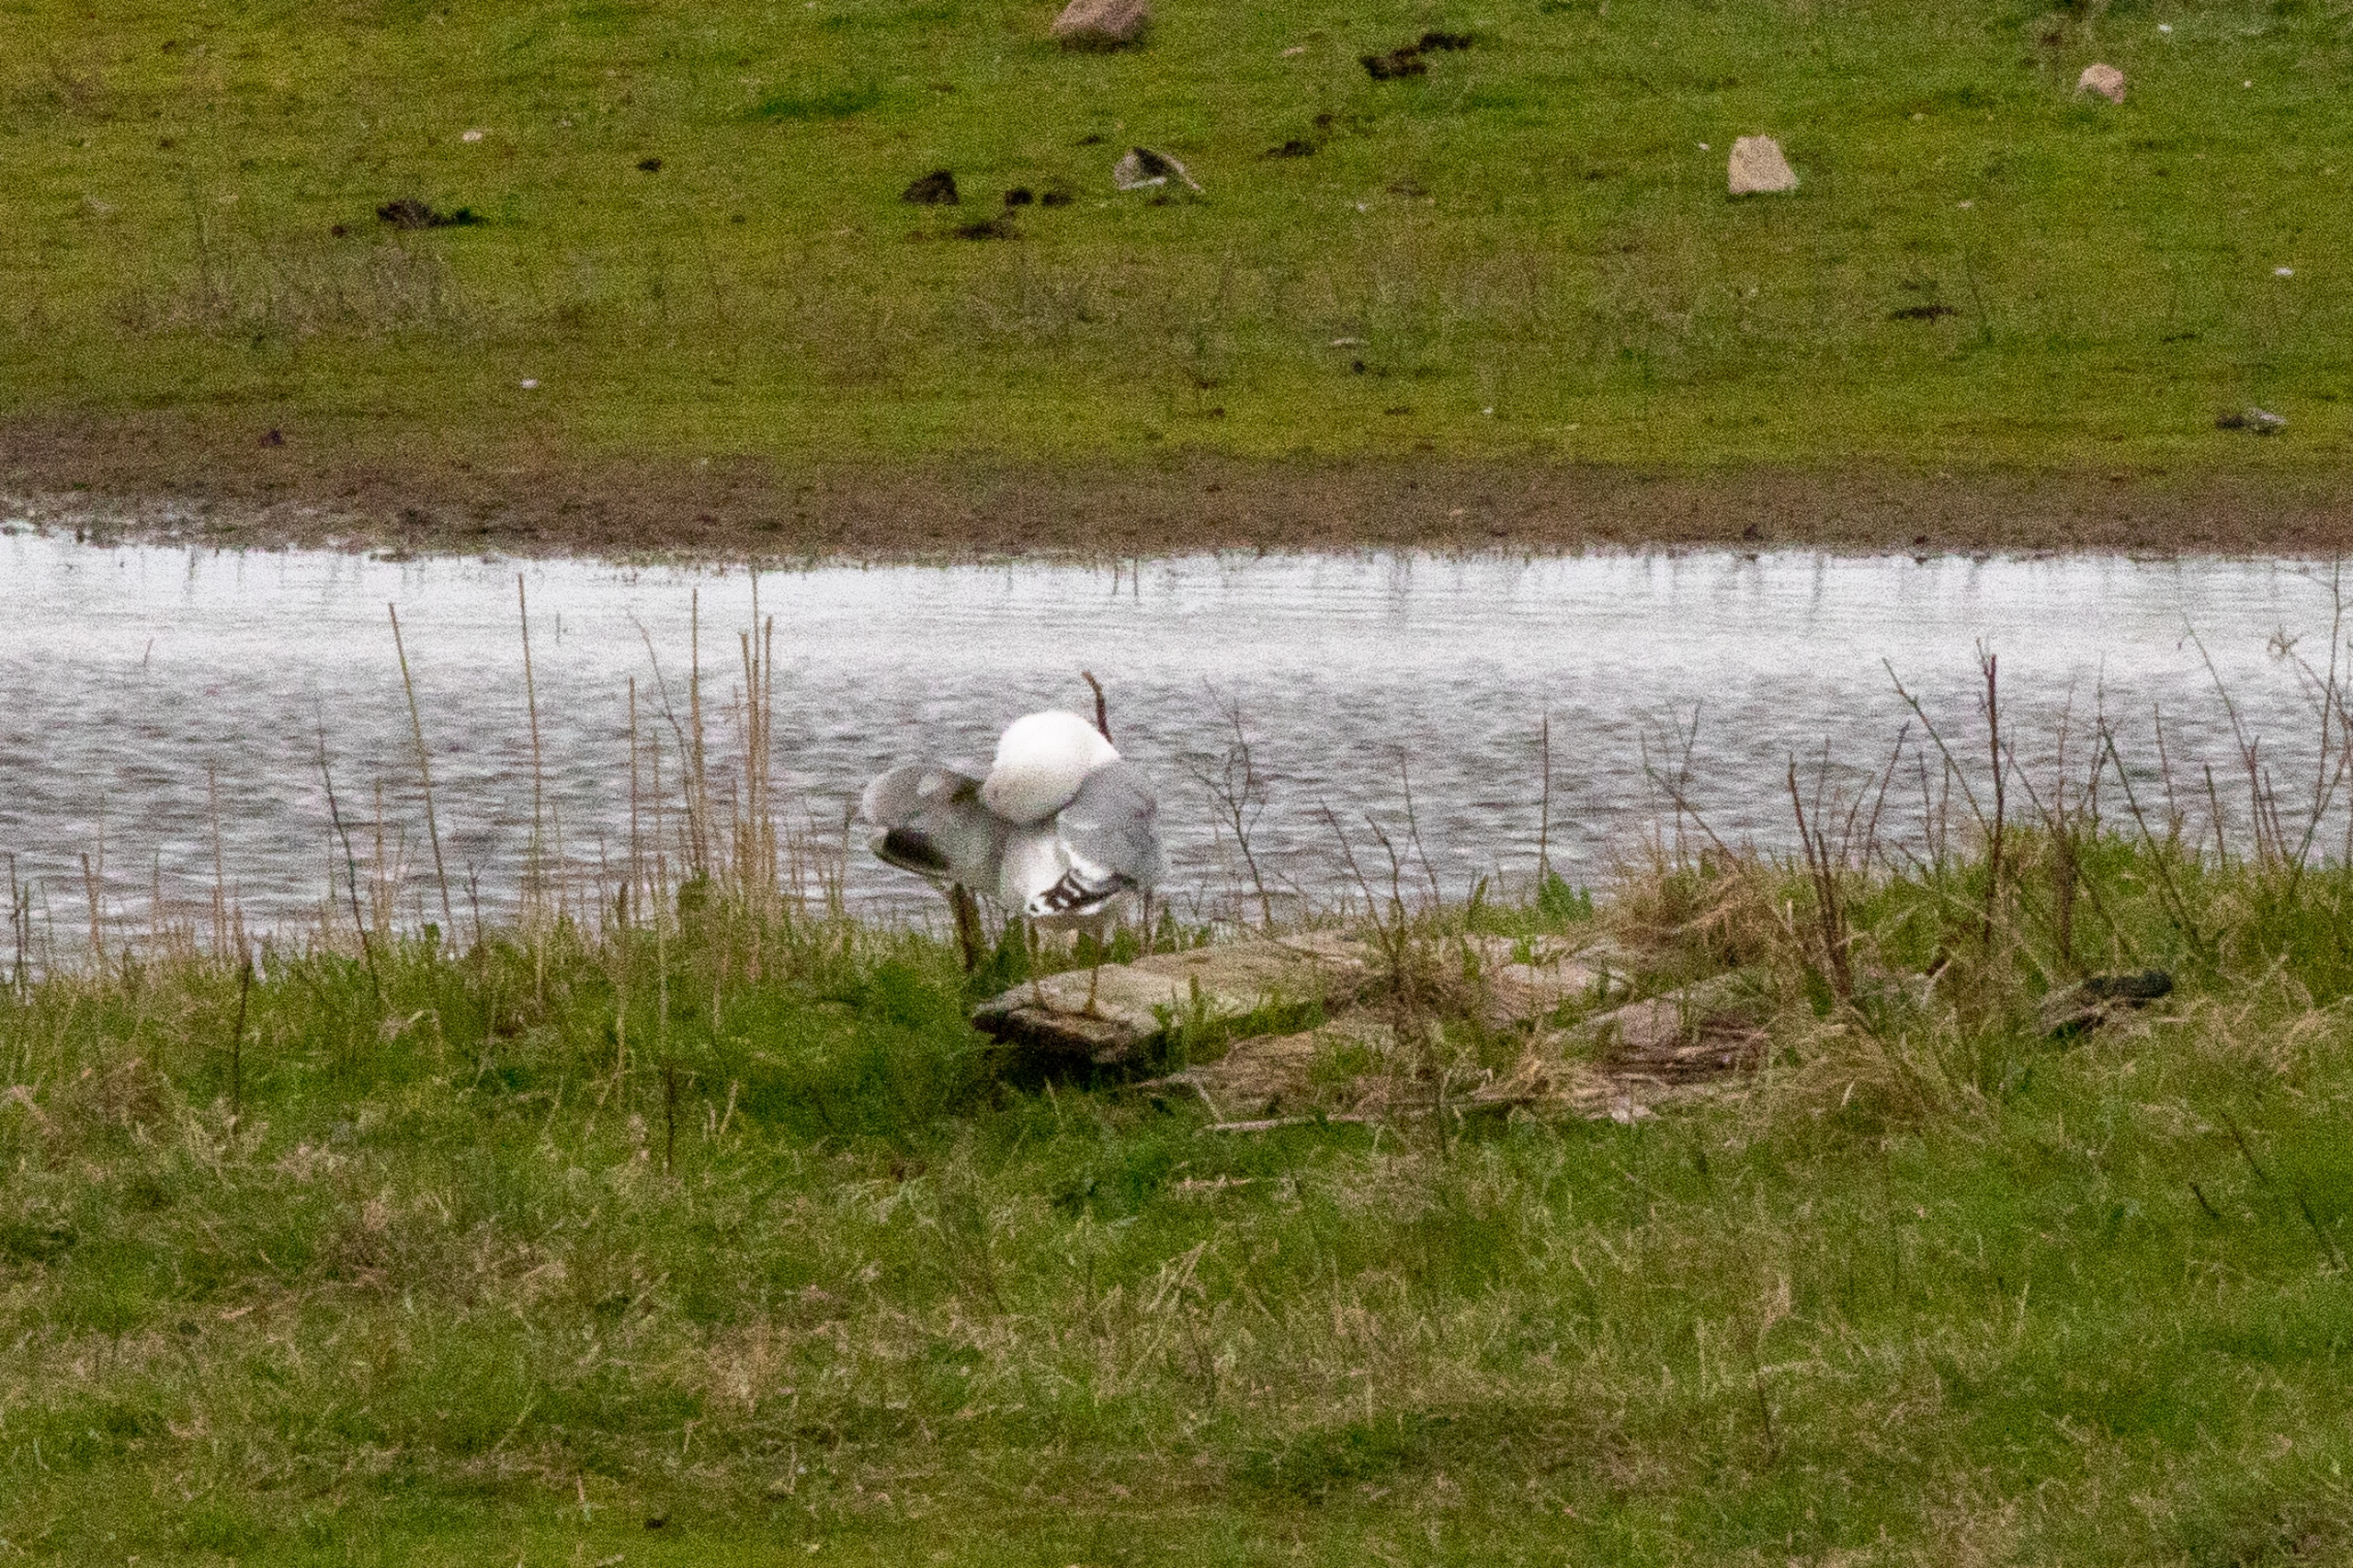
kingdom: Animalia
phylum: Chordata
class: Aves
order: Charadriiformes
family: Laridae
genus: Larus
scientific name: Larus argentatus
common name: Sølvmåge
